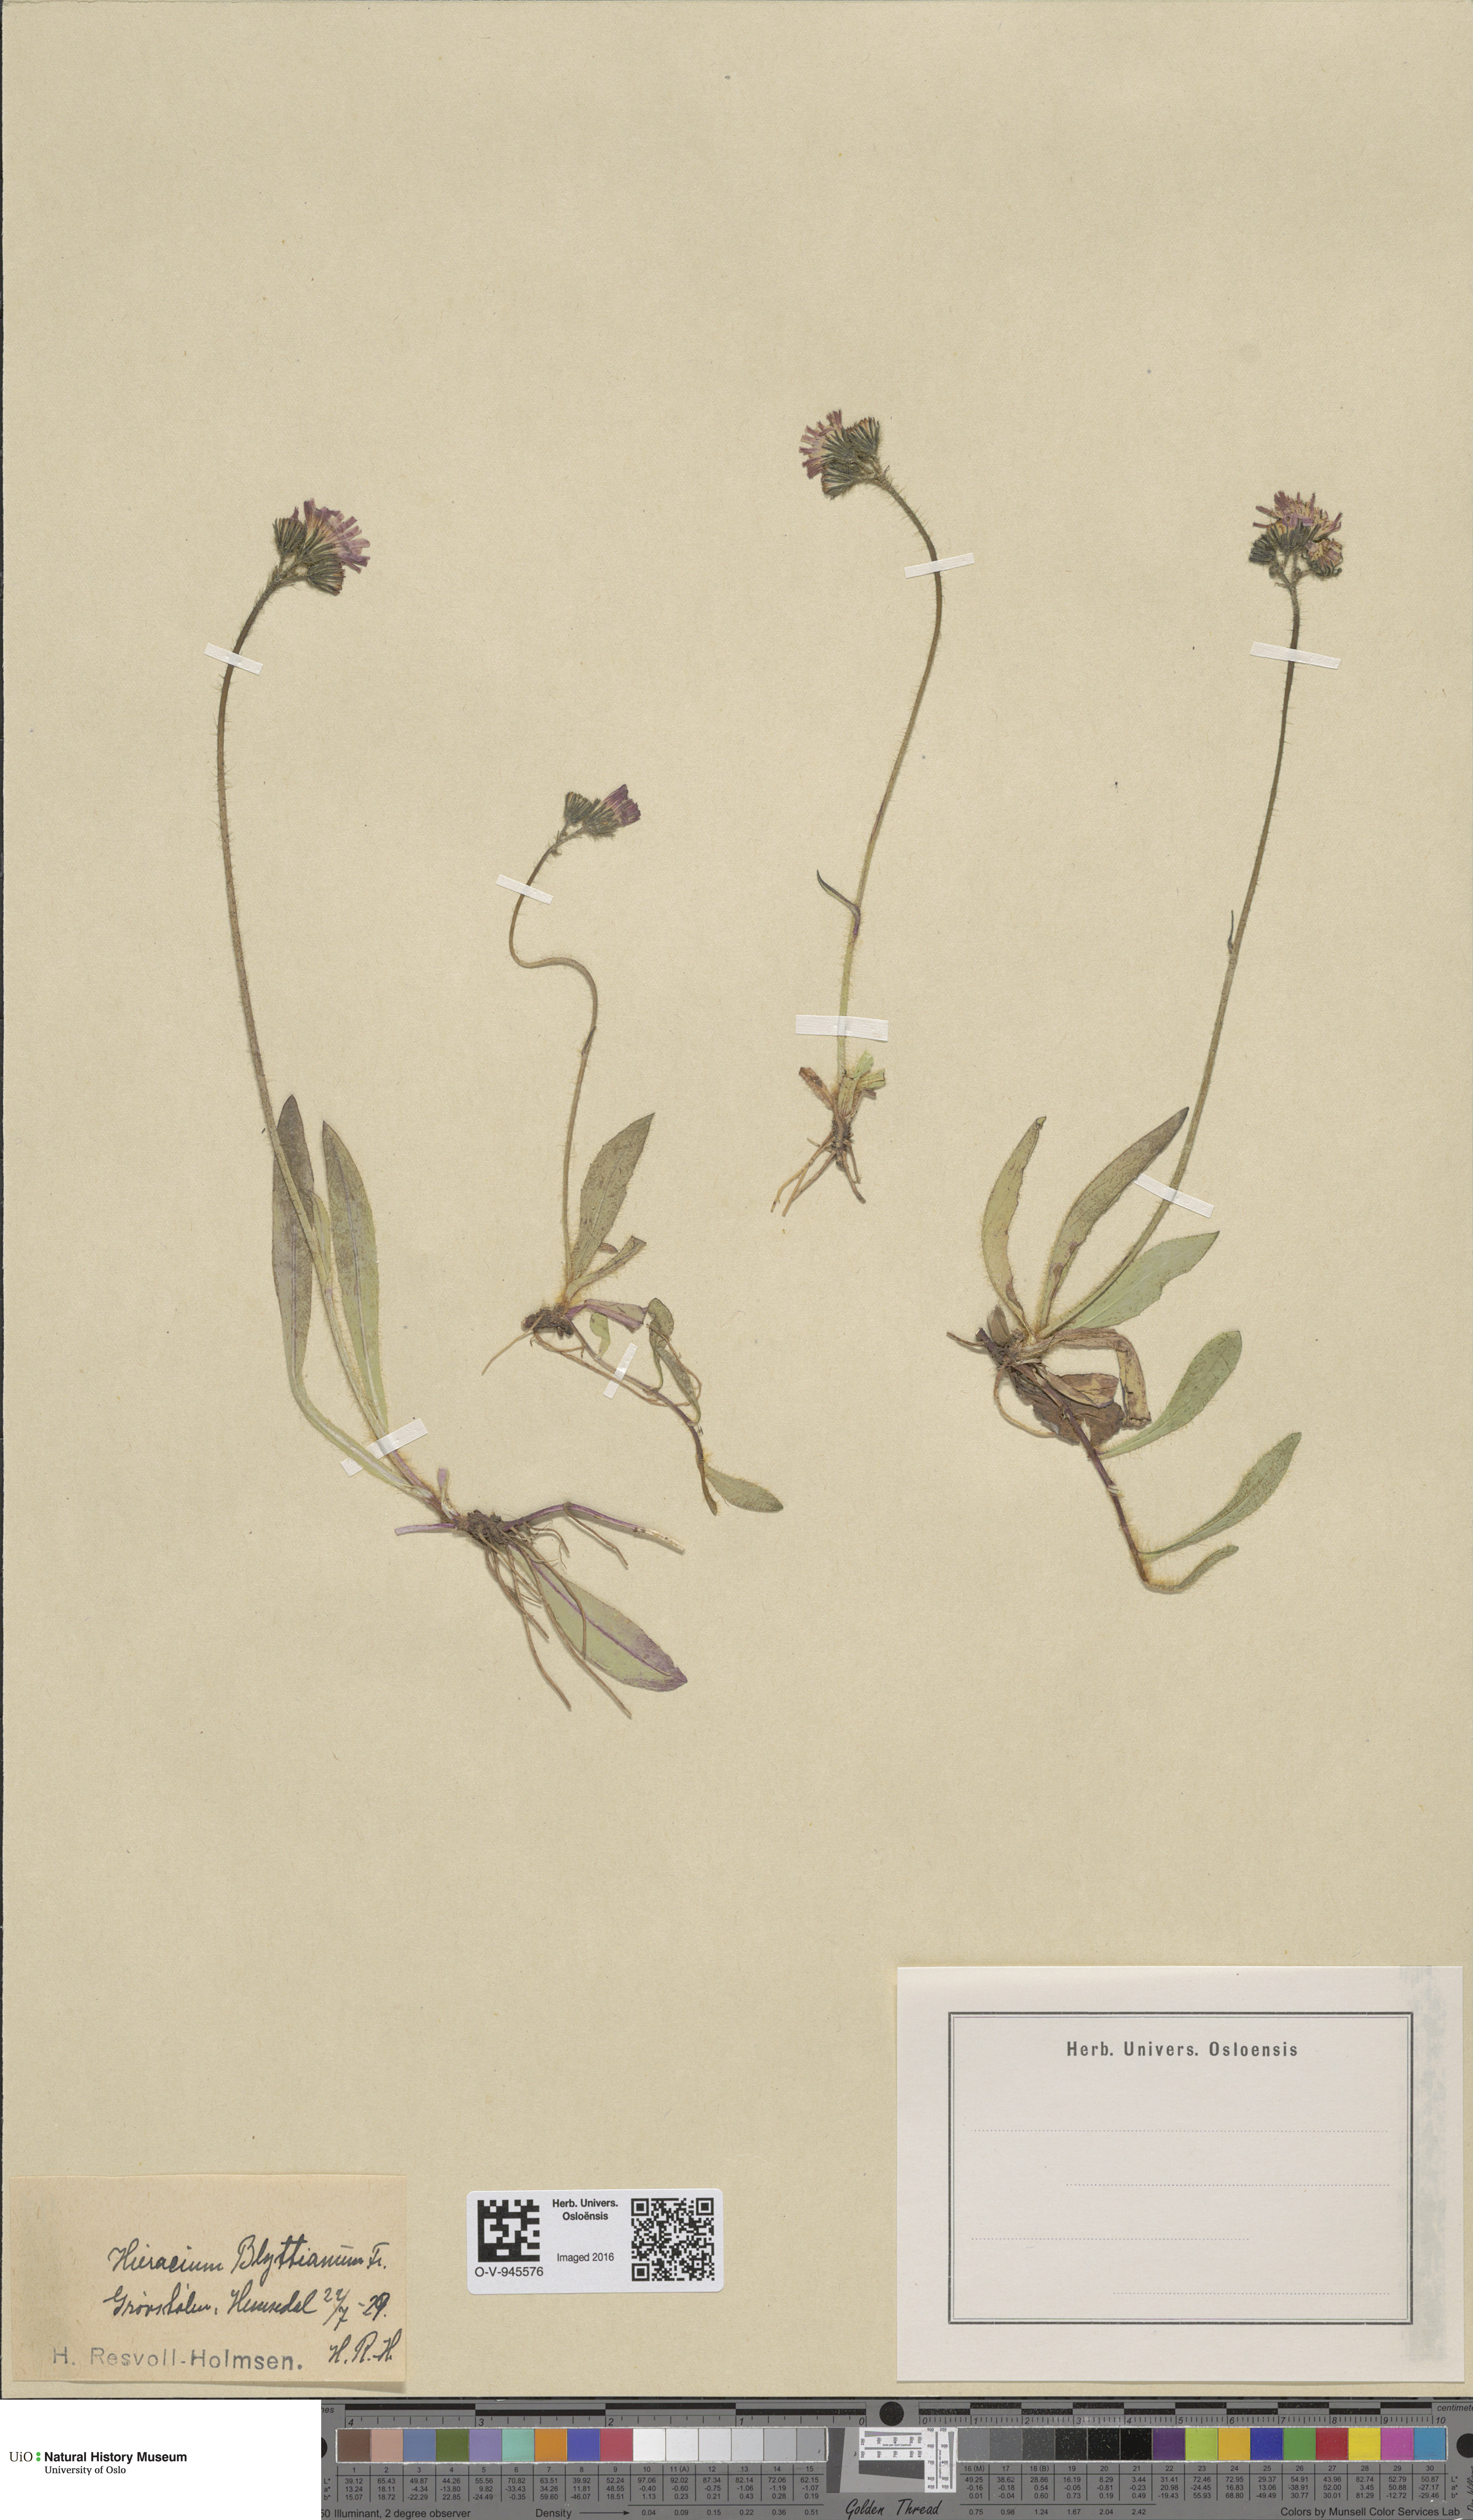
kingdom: Plantae
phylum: Tracheophyta
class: Magnoliopsida
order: Asterales
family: Asteraceae
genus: Pilosella
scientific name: Pilosella blyttiana
